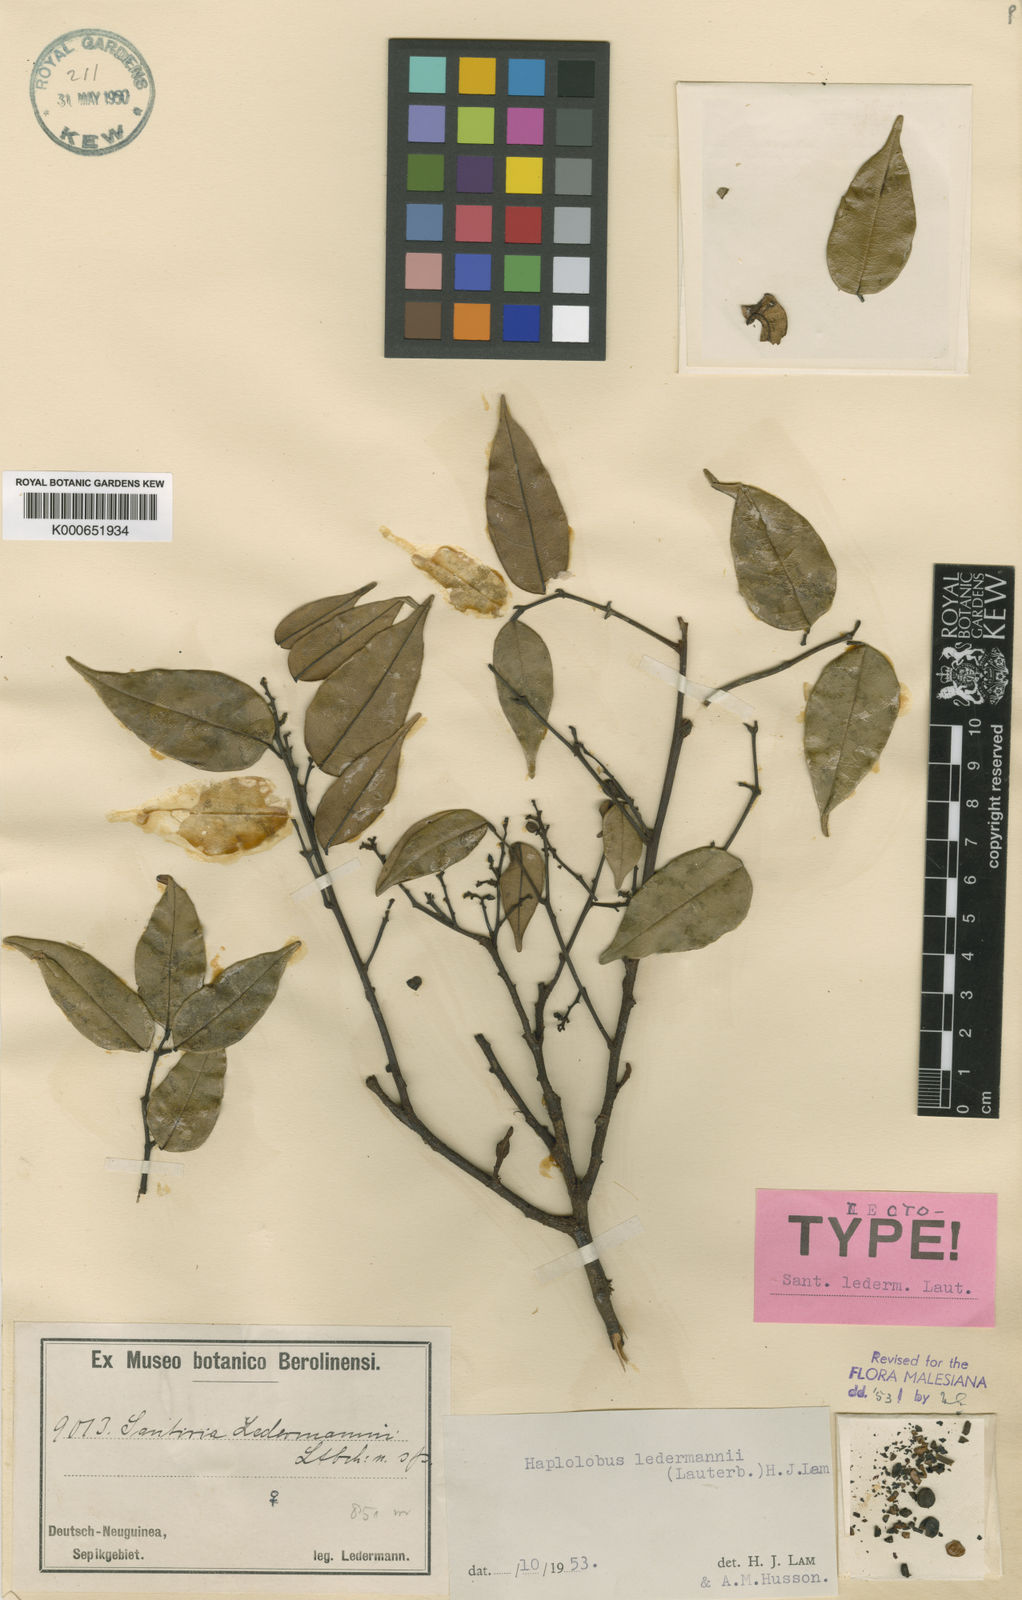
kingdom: Plantae
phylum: Tracheophyta
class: Magnoliopsida
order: Sapindales
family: Burseraceae
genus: Haplolobus
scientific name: Haplolobus floribundus
